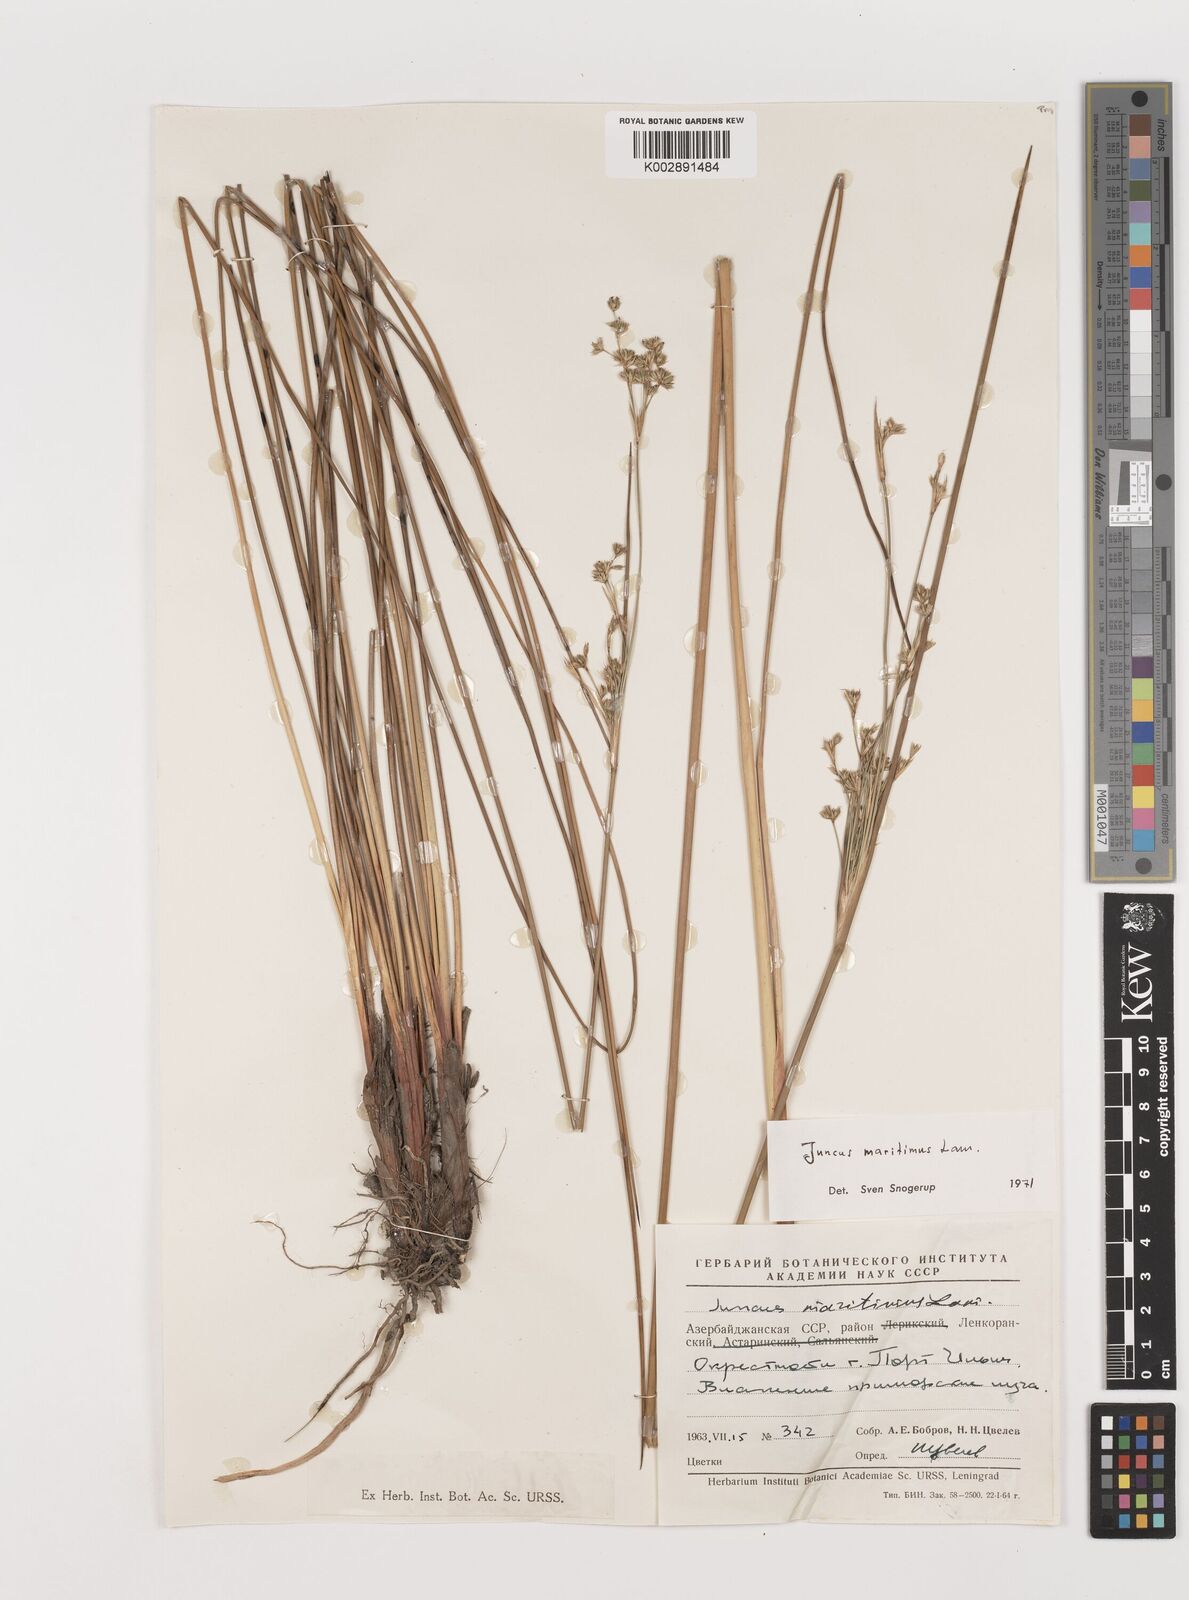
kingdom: Plantae
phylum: Tracheophyta
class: Liliopsida
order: Poales
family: Juncaceae
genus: Juncus
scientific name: Juncus maritimus
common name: Sea rush
